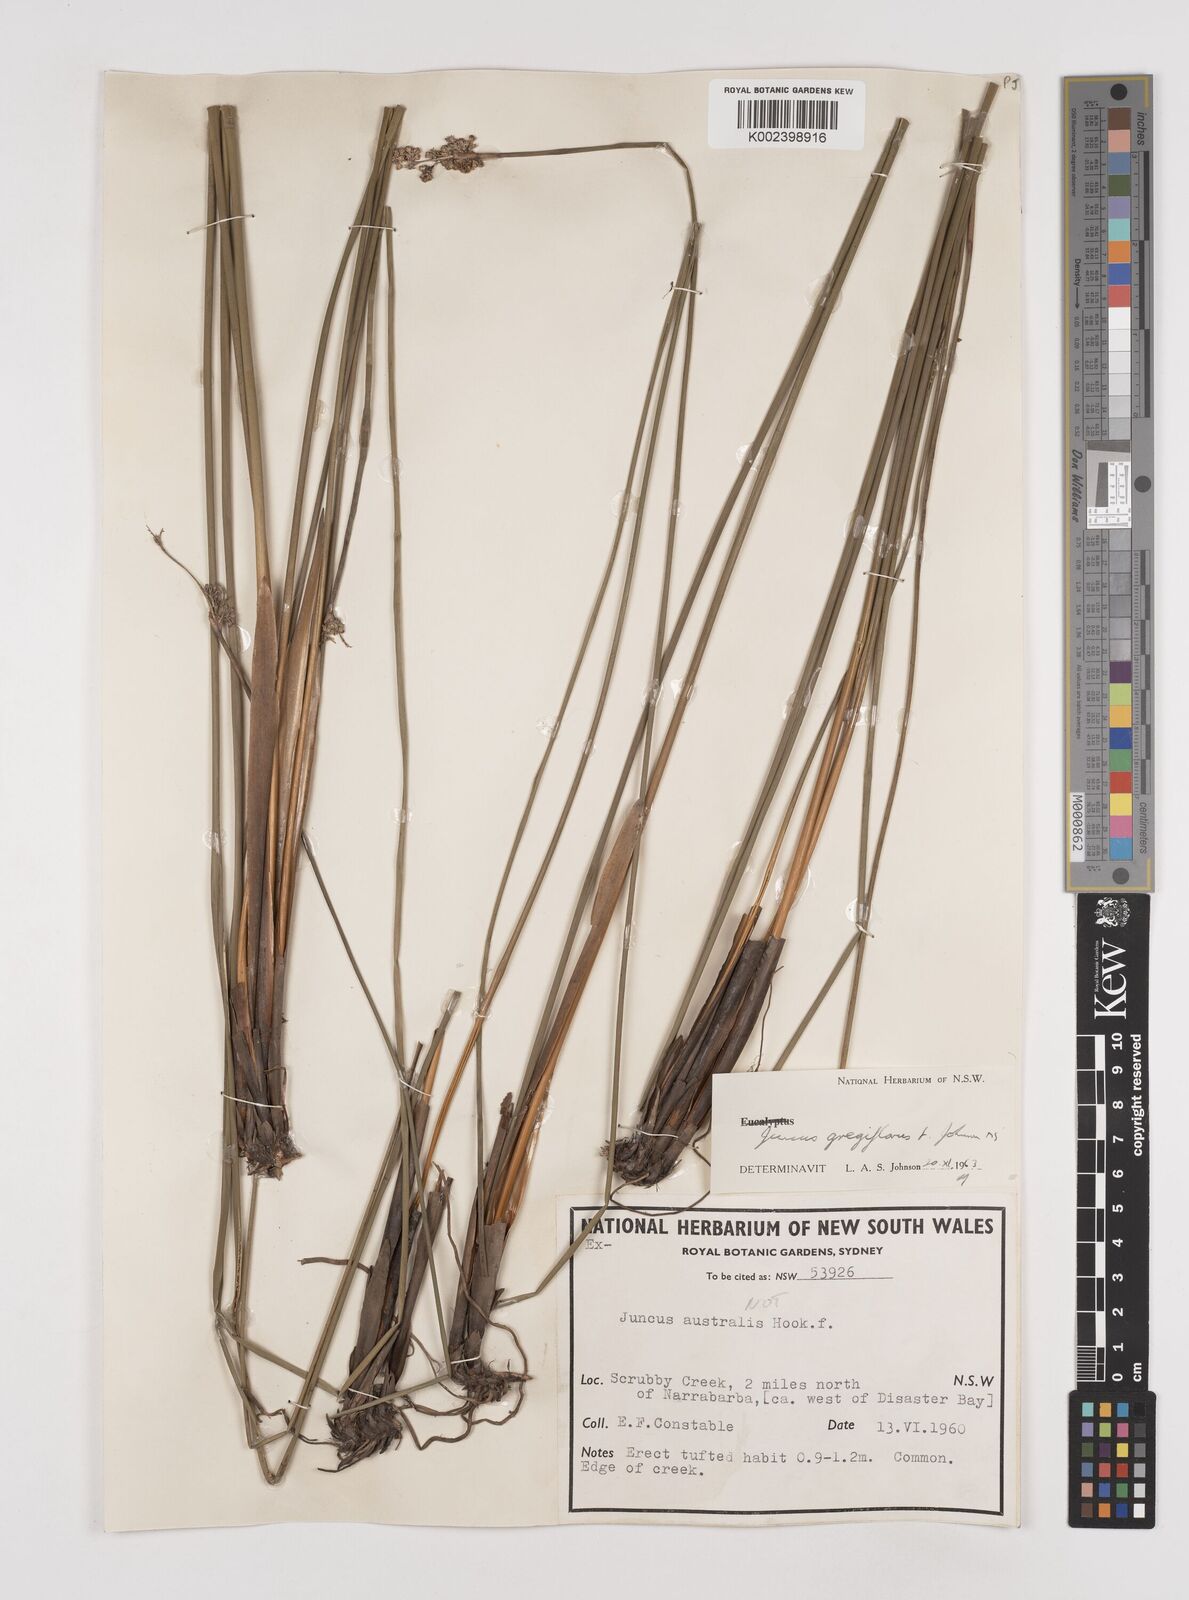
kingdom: Plantae
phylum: Tracheophyta
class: Liliopsida
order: Poales
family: Juncaceae
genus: Juncus
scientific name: Juncus gregiflorus
